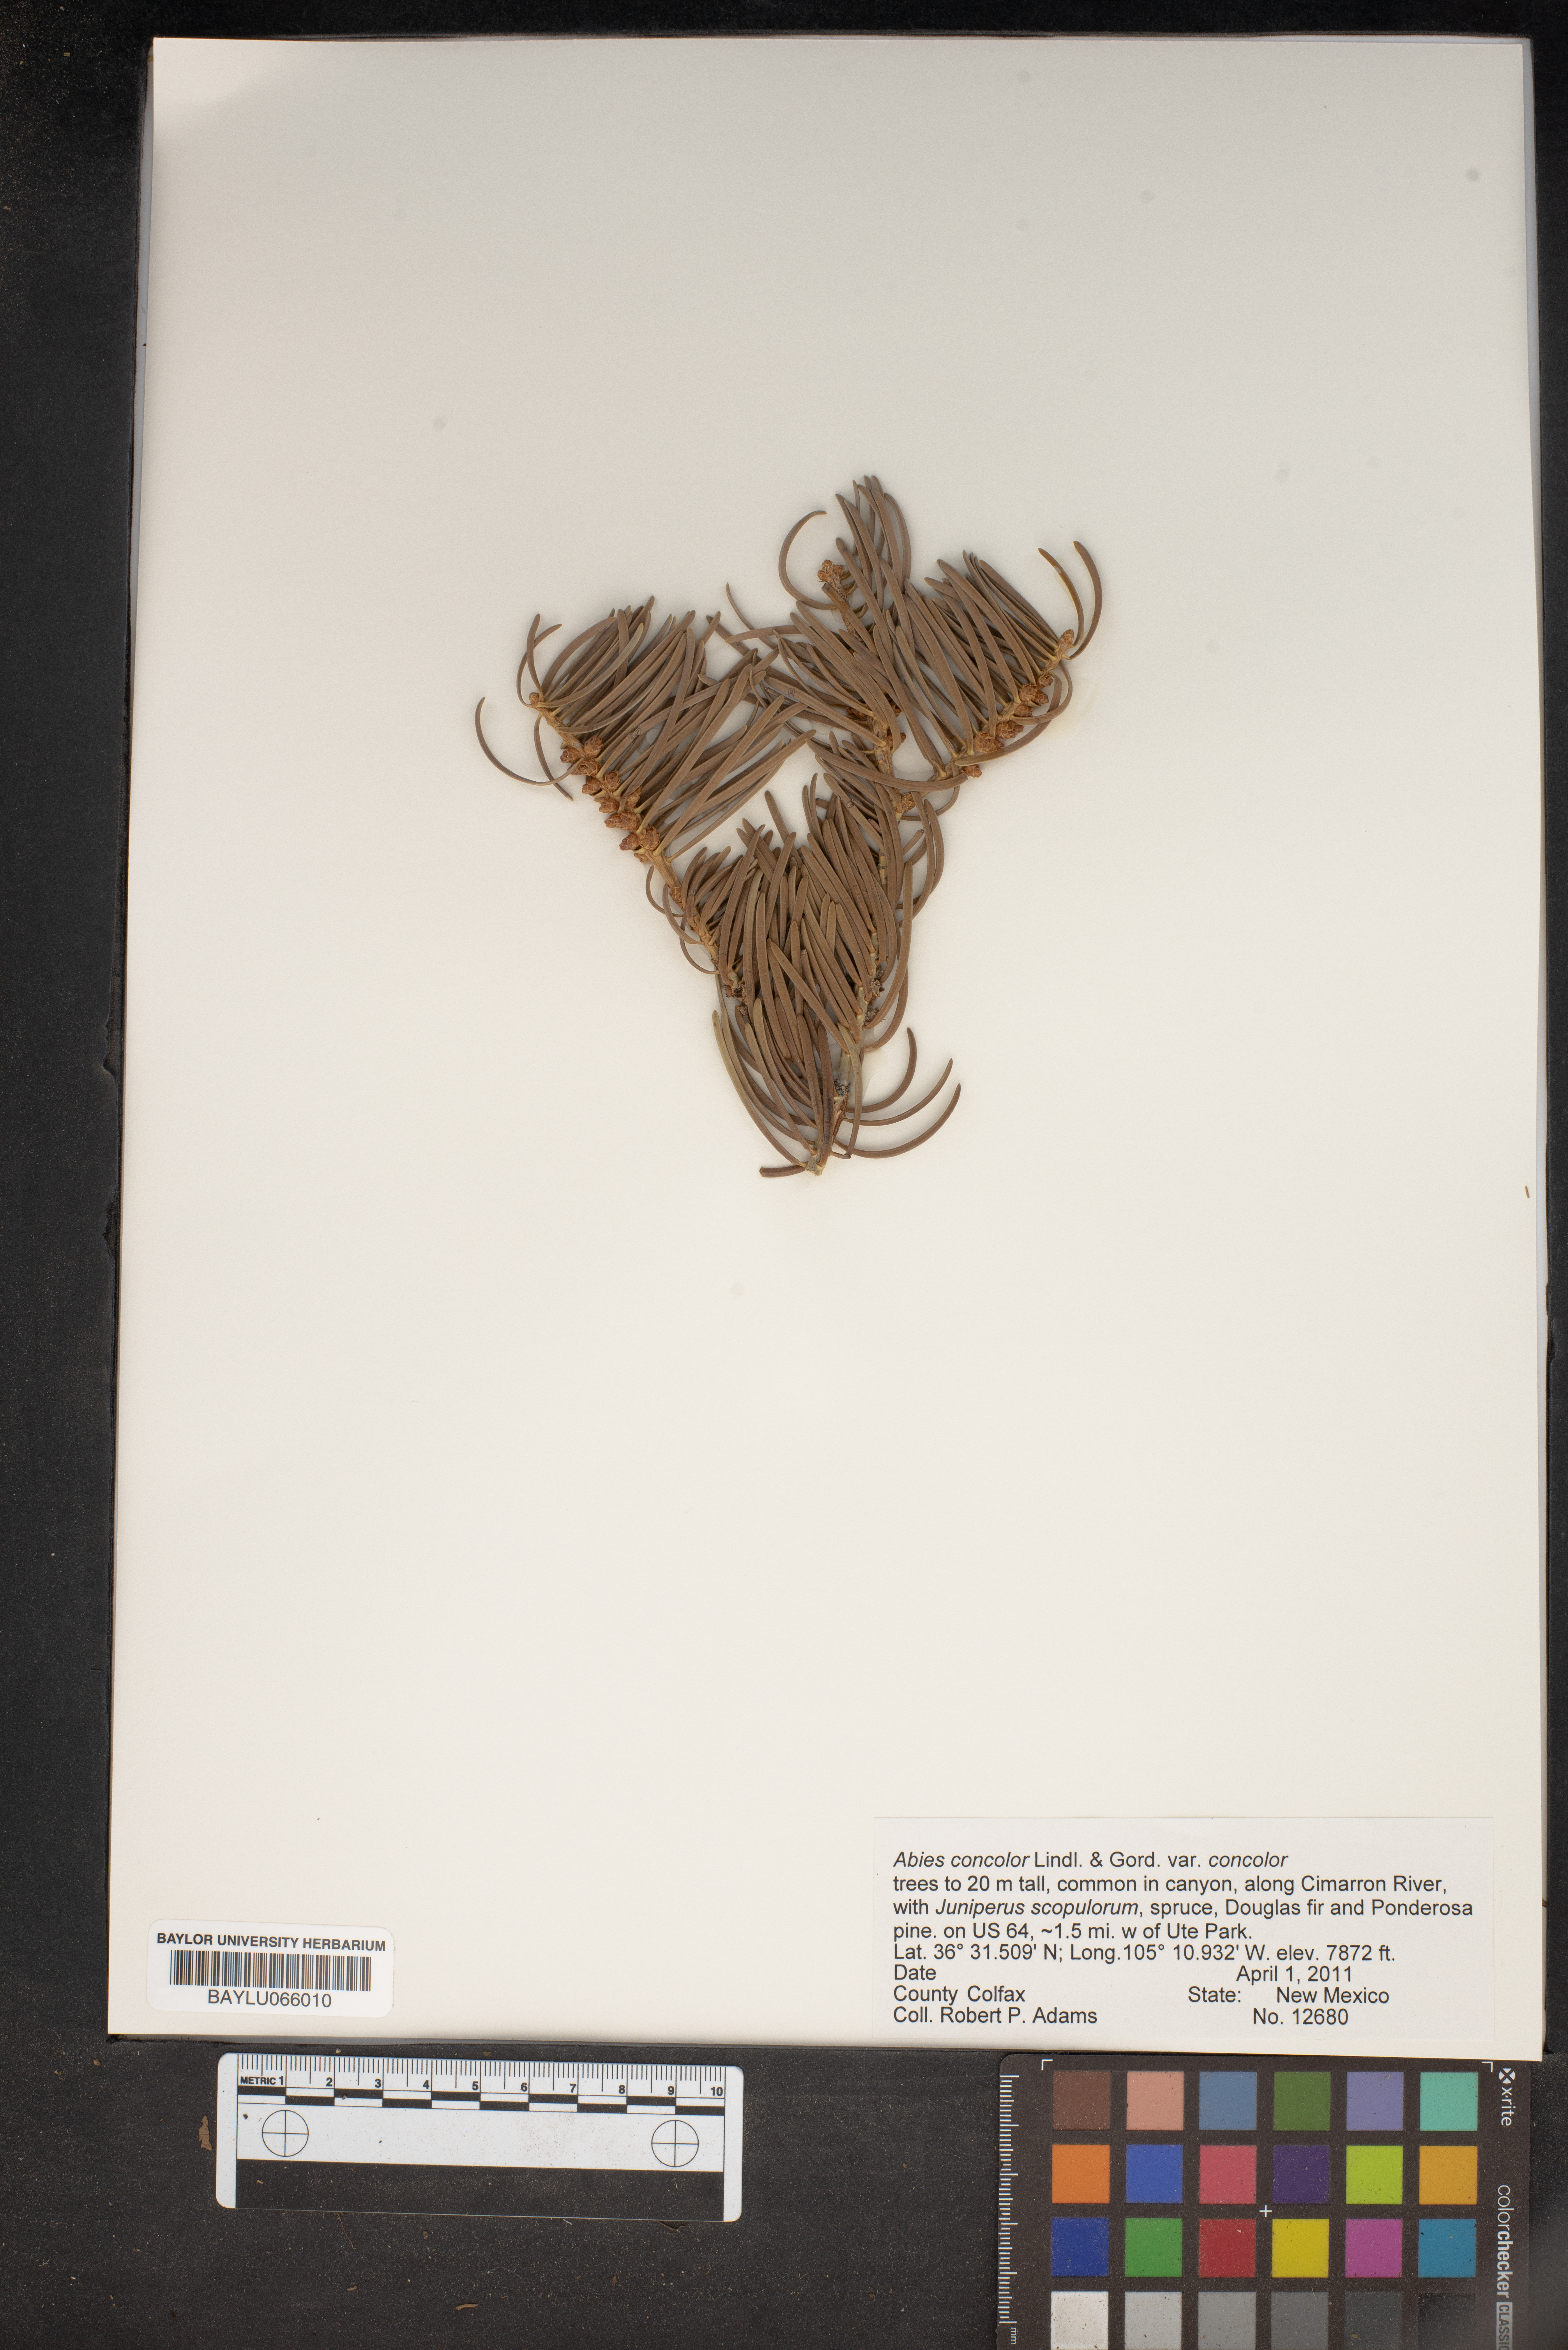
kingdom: Plantae
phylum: Tracheophyta
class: Pinopsida
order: Pinales
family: Pinaceae
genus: Abies
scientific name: Abies concolor
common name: Colorado fir
